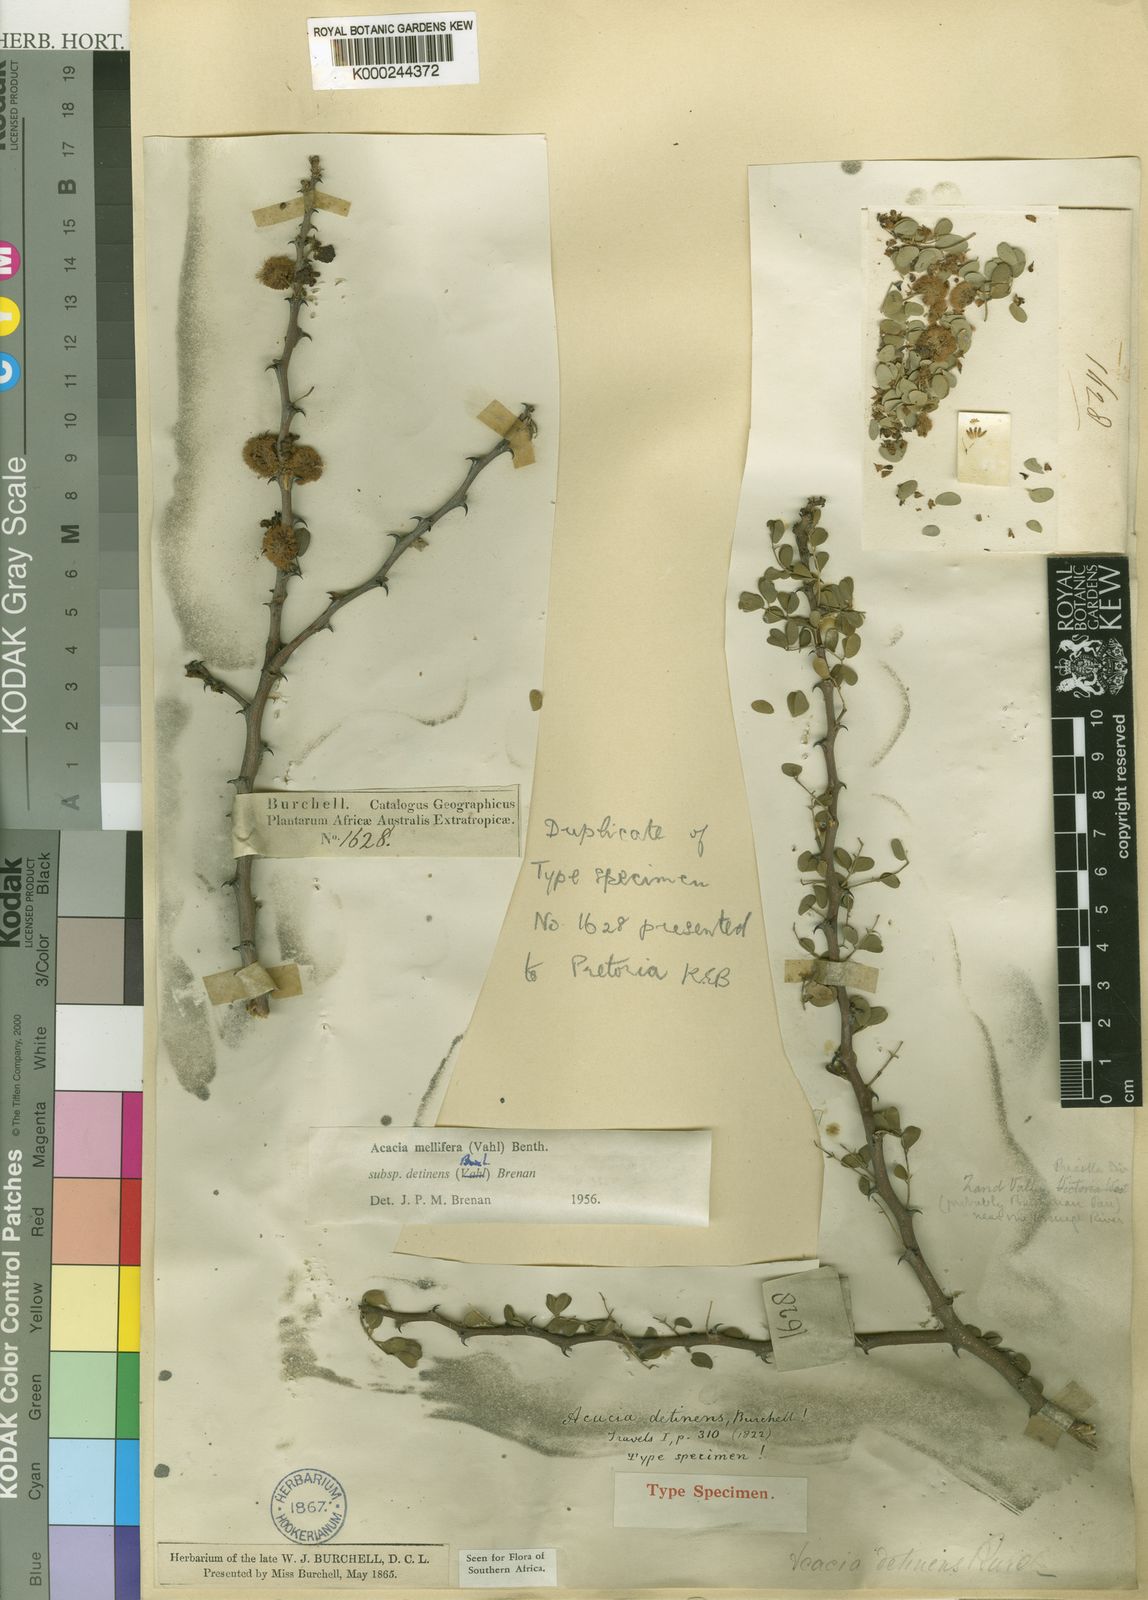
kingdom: Plantae
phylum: Tracheophyta
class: Magnoliopsida
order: Fabales
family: Fabaceae
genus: Senegalia
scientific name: Senegalia mellifera
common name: Hookthorn
